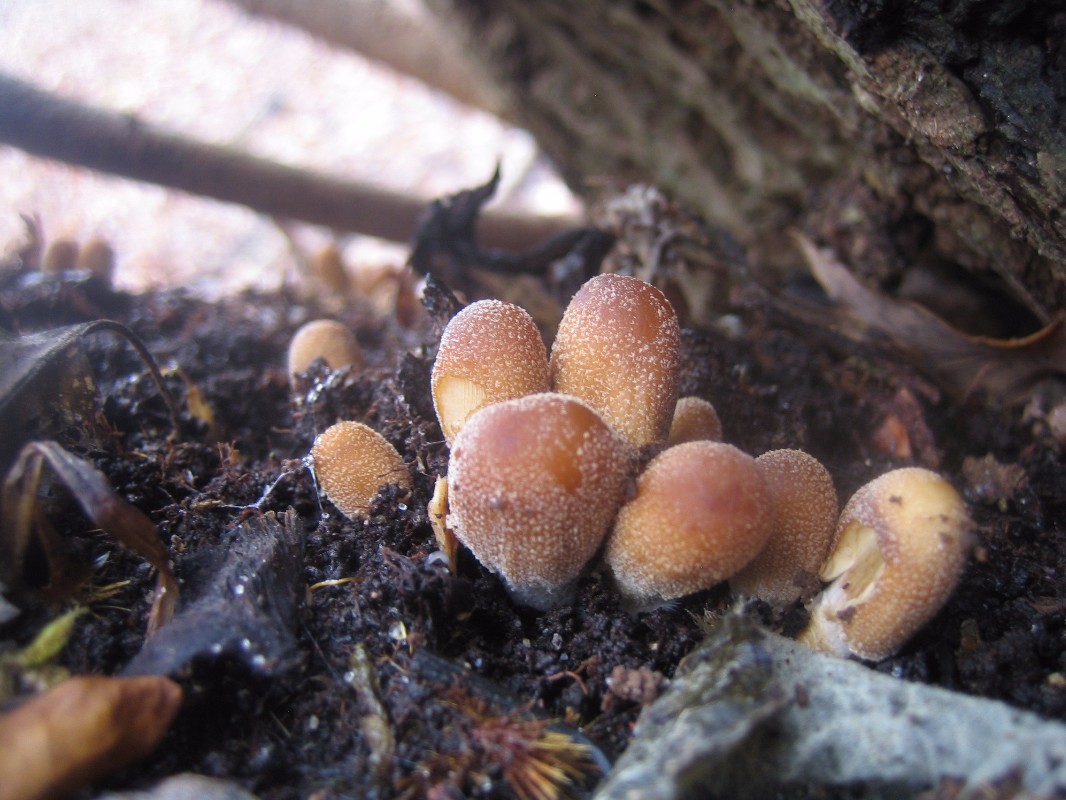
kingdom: Fungi
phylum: Basidiomycota
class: Agaricomycetes
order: Agaricales
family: Psathyrellaceae
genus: Coprinellus
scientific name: Coprinellus micaceus
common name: glimmer-blækhat
